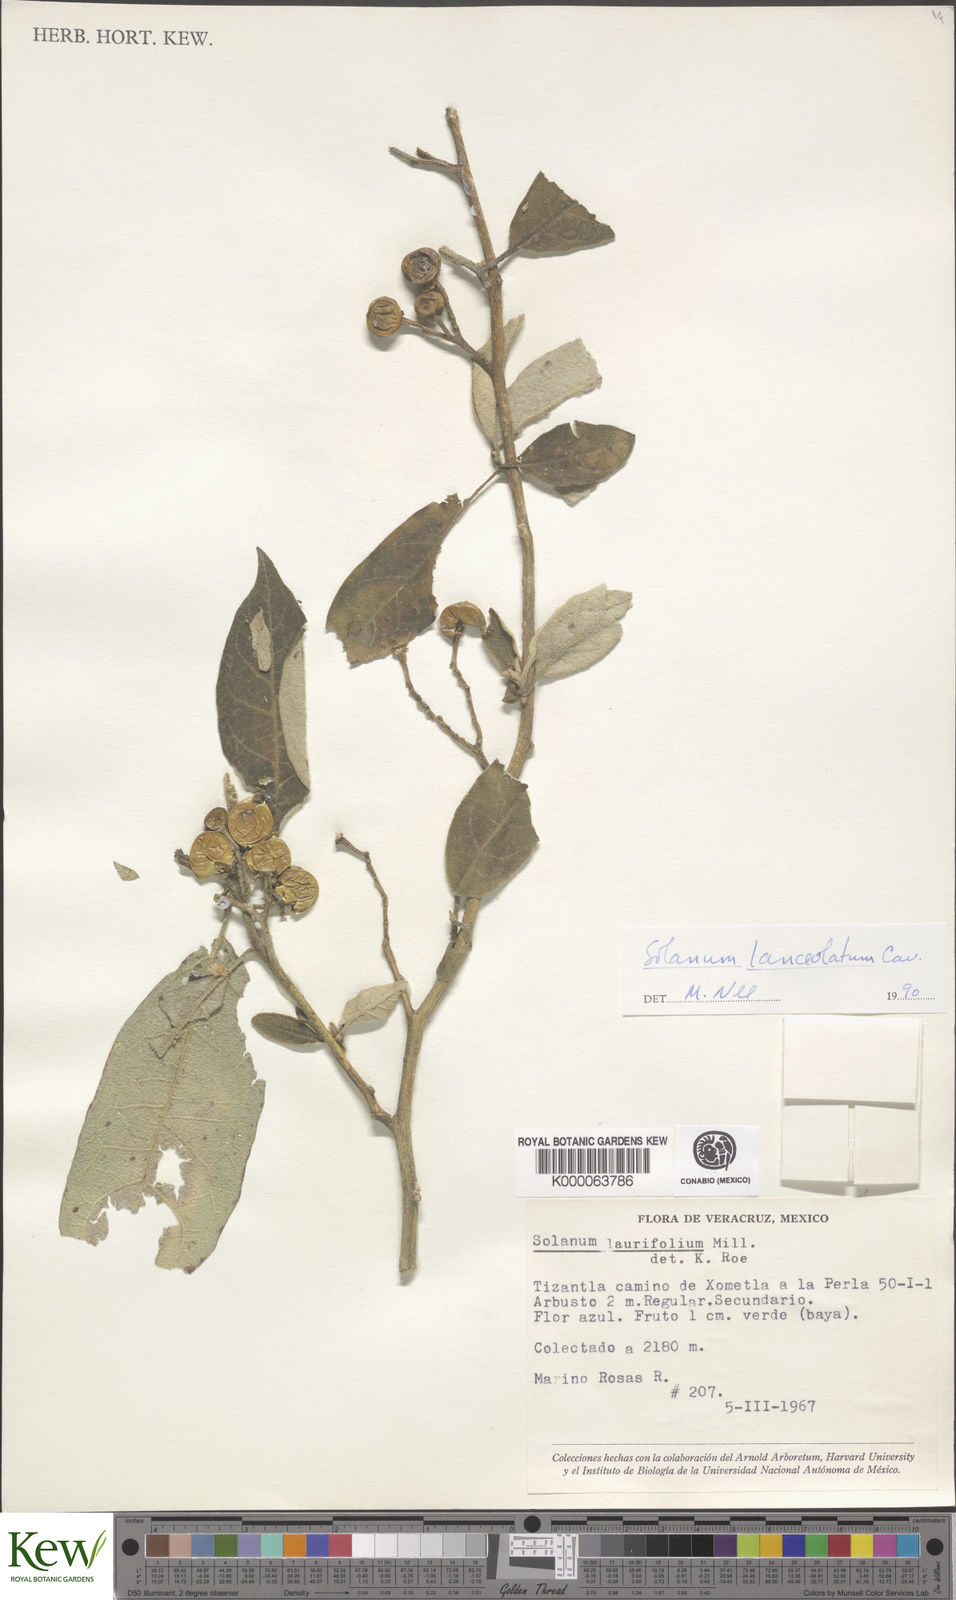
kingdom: Plantae
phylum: Tracheophyta
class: Magnoliopsida
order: Solanales
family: Solanaceae
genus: Solanum
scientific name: Solanum lanceolatum
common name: Orangeberry nightshade
